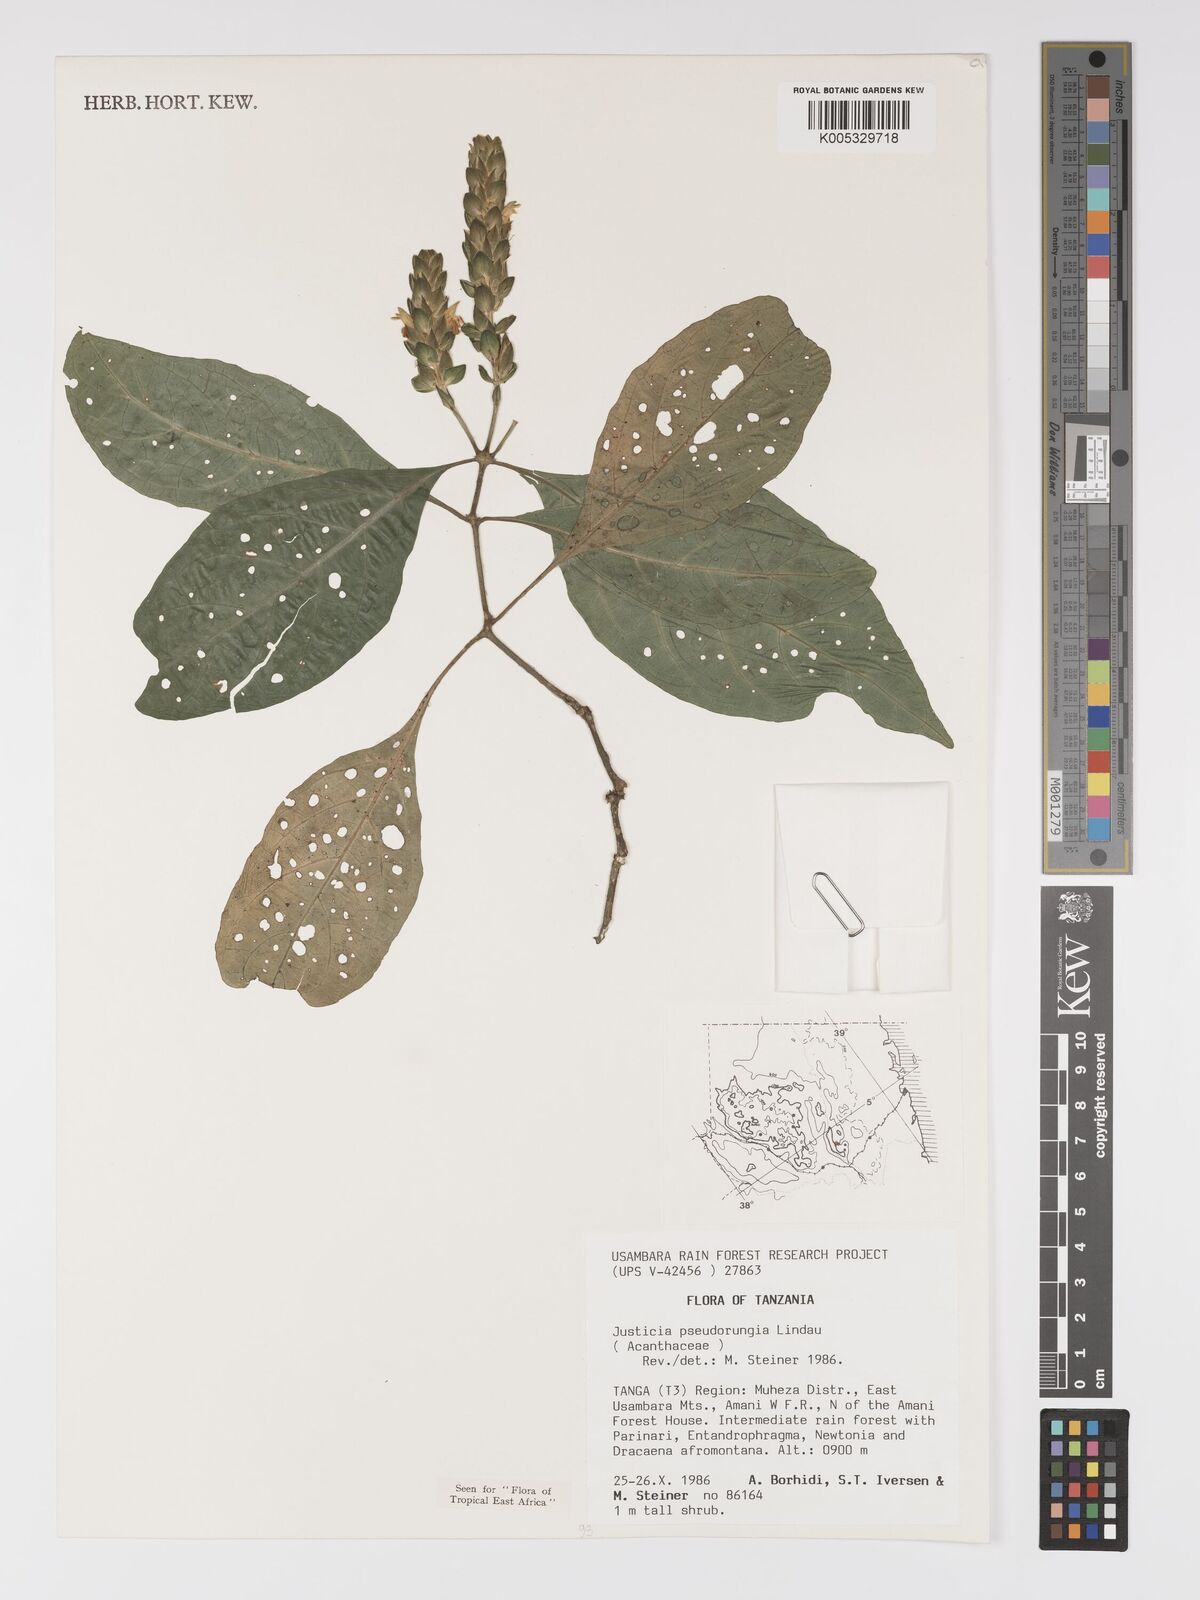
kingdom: Plantae
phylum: Tracheophyta
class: Magnoliopsida
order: Lamiales
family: Acanthaceae
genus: Justicia
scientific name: Justicia pseudorungia
